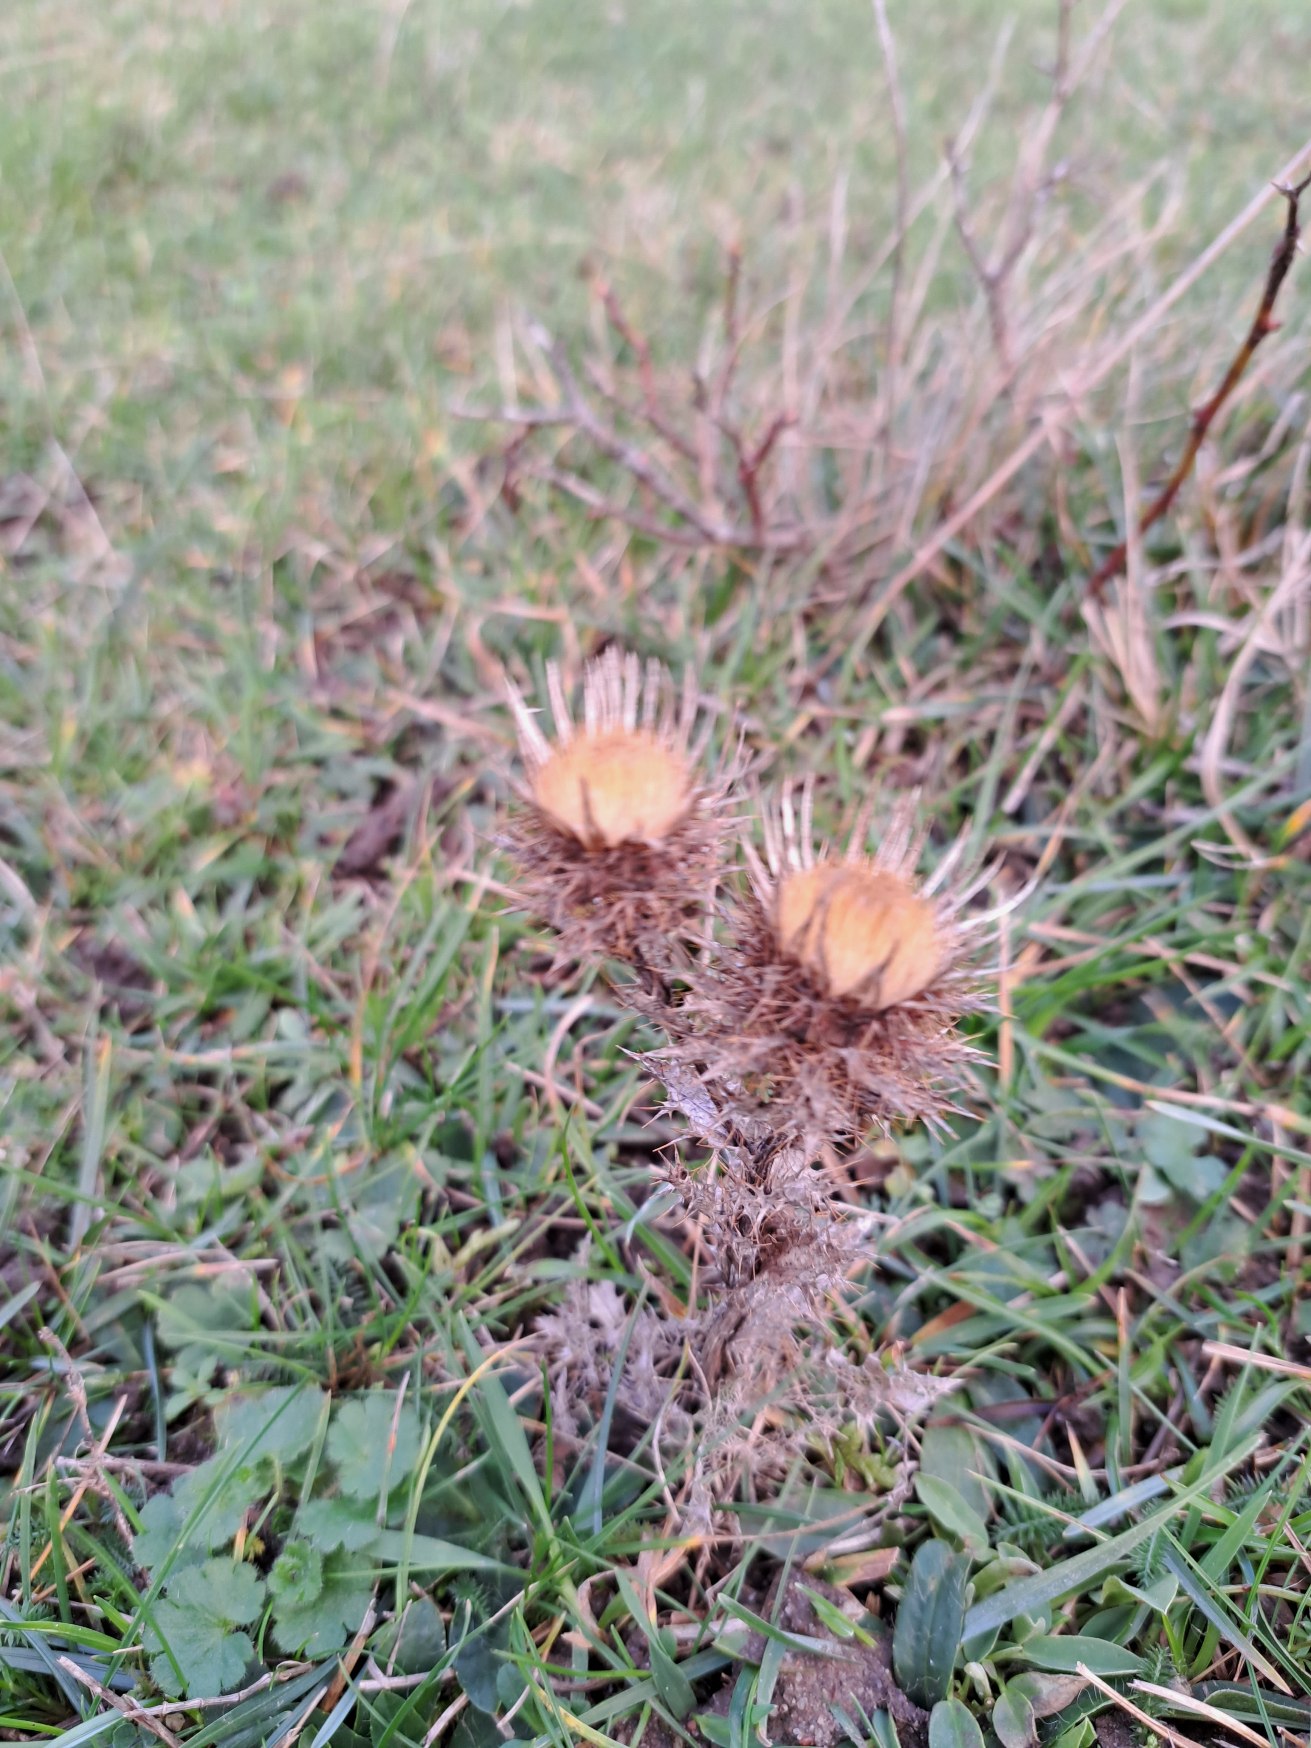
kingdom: Plantae
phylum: Tracheophyta
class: Magnoliopsida
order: Asterales
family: Asteraceae
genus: Carlina
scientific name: Carlina vulgaris
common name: Bakketidsel
